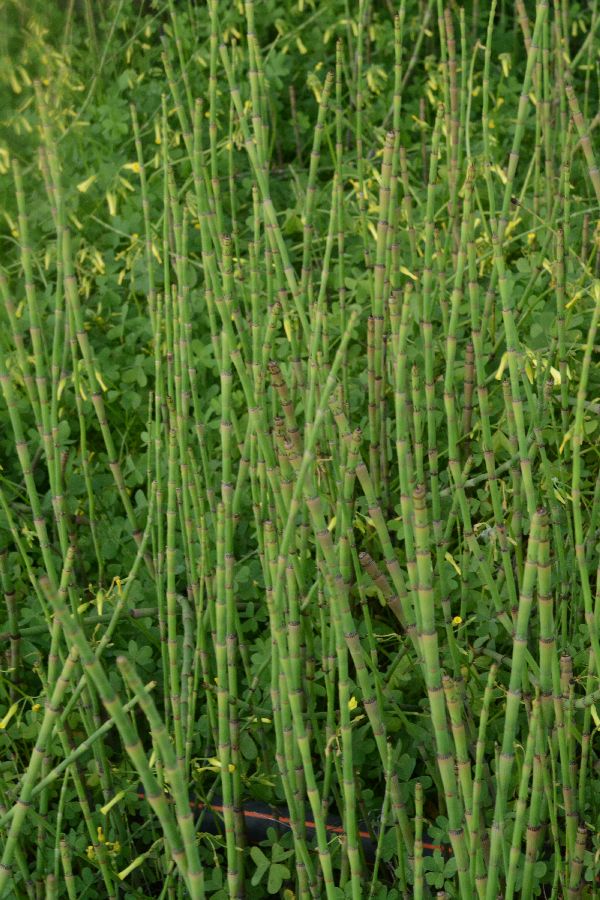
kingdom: Plantae
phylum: Tracheophyta
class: Polypodiopsida
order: Equisetales
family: Equisetaceae
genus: Equisetum
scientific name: Equisetum ramosissimum
